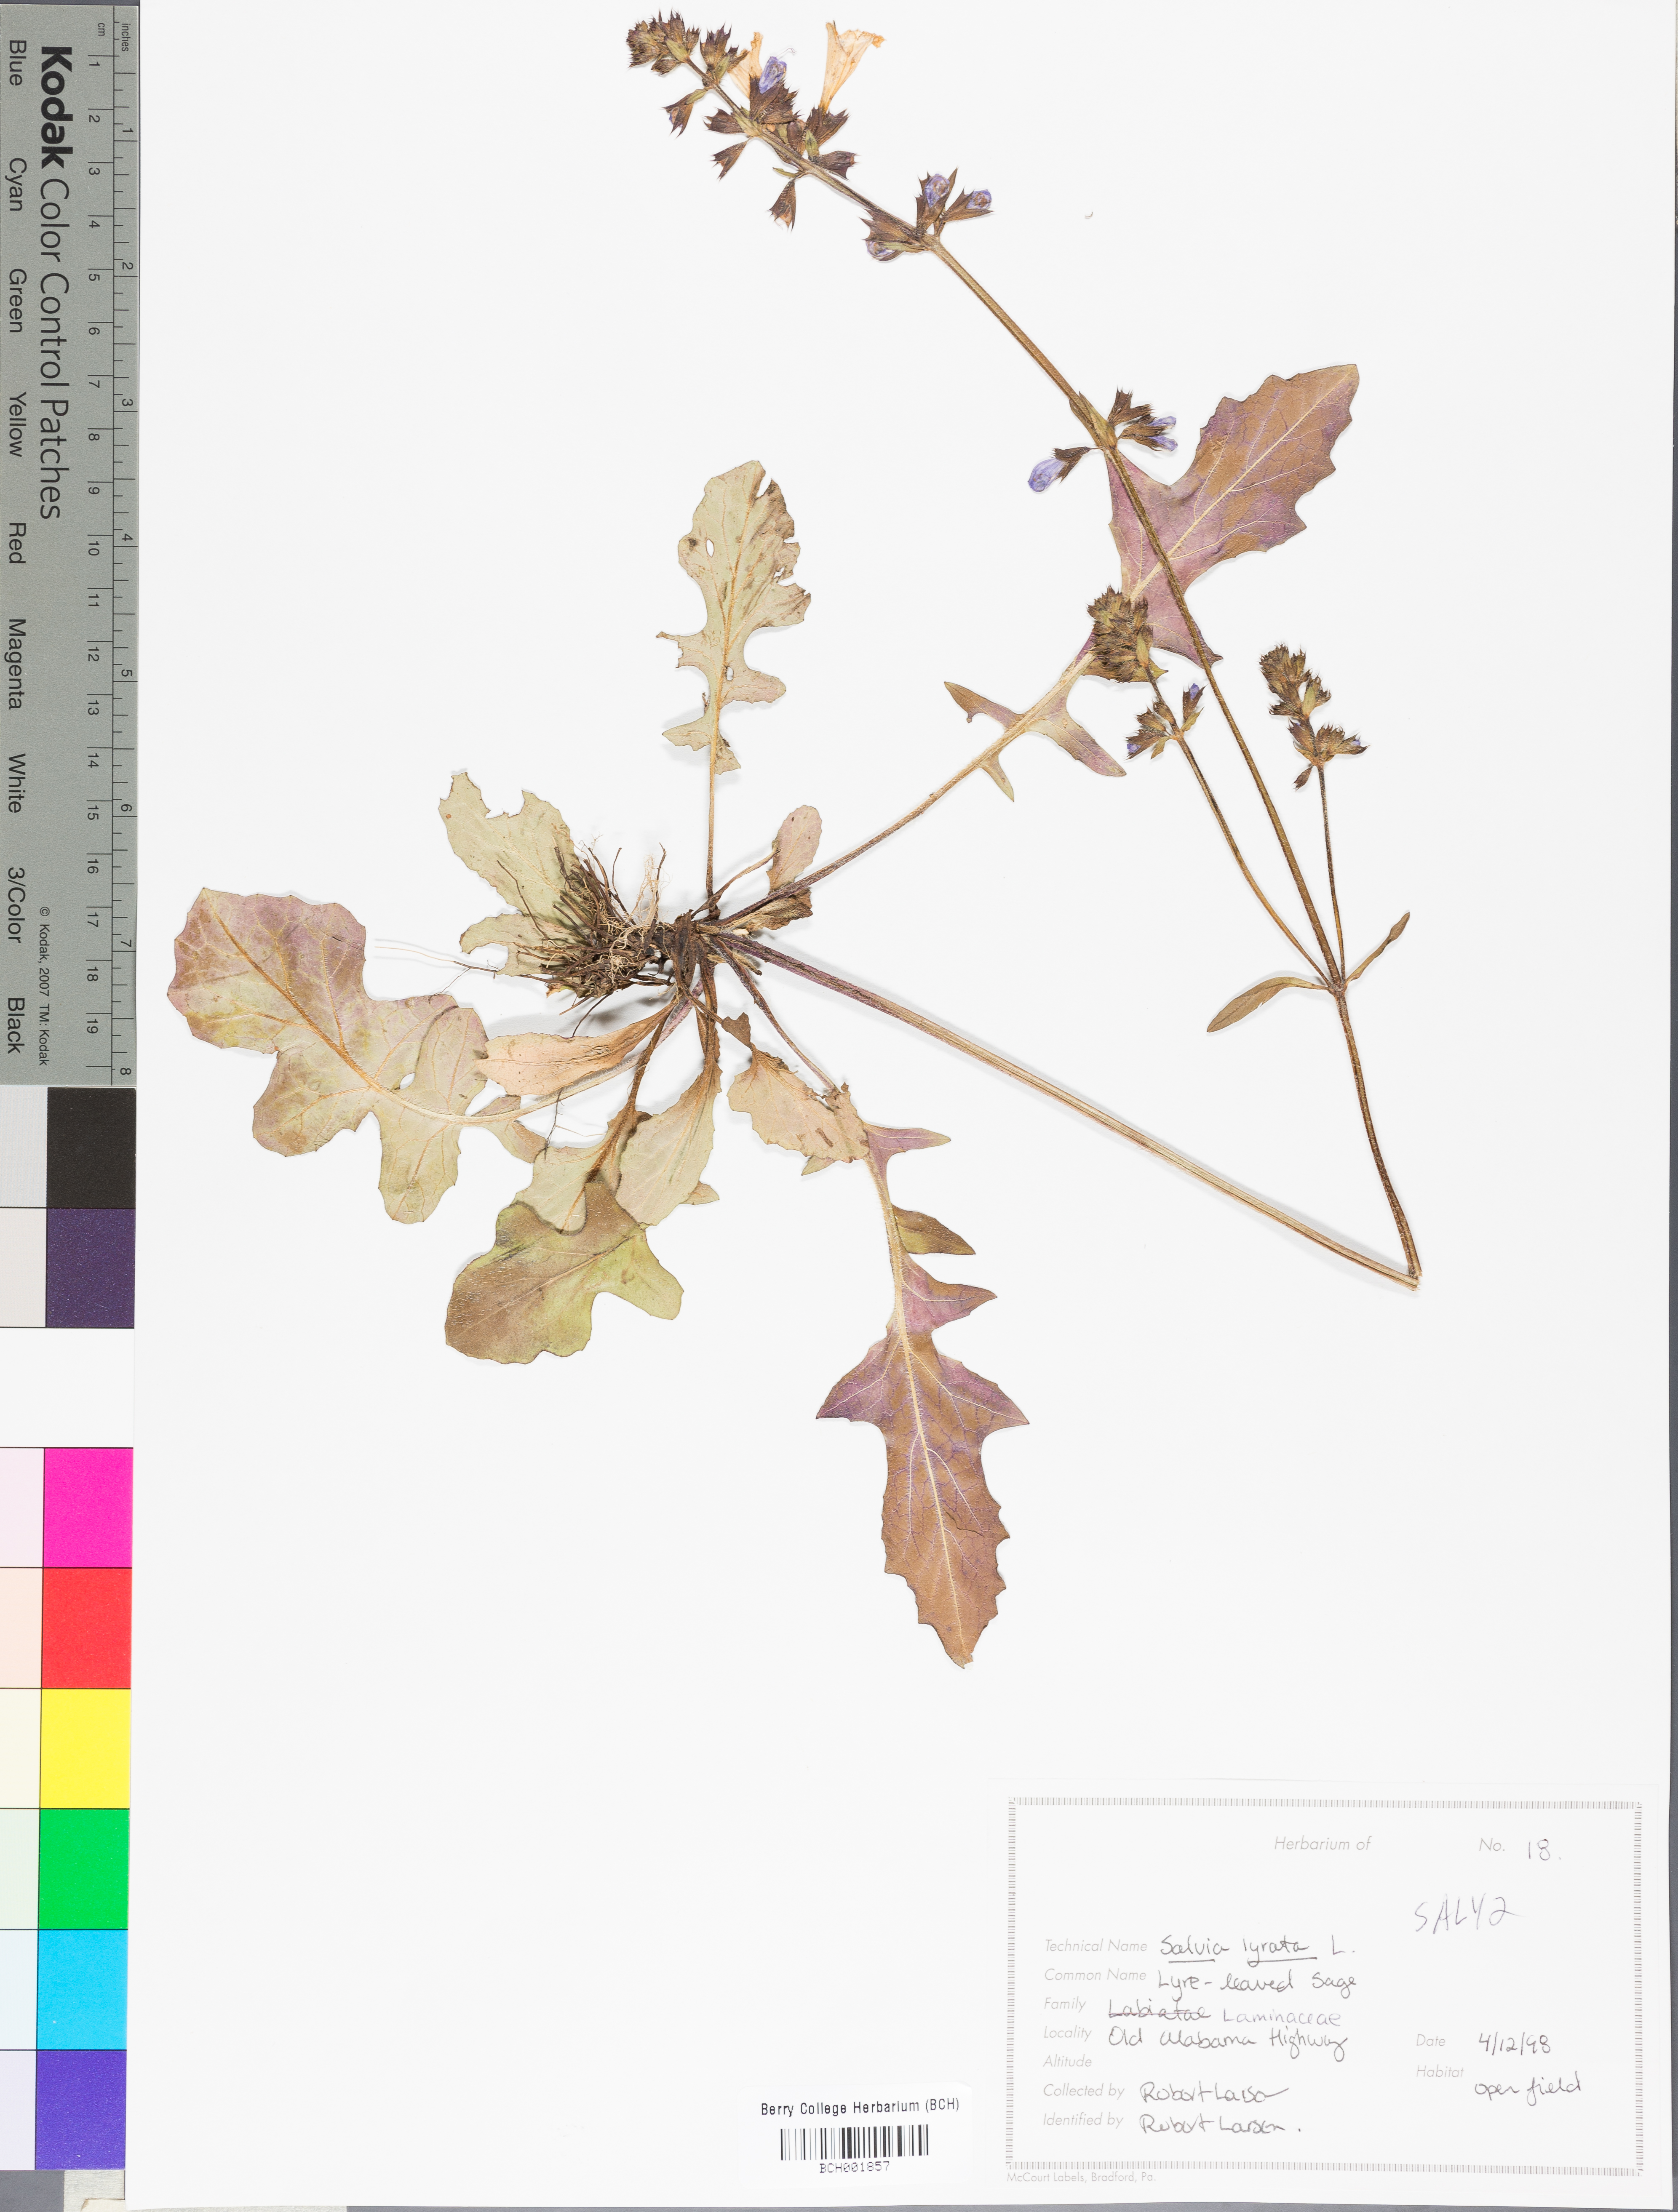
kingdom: Plantae
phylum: Tracheophyta
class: Magnoliopsida
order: Lamiales
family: Lamiaceae
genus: Salvia
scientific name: Salvia lyrata
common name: Cancerweed
